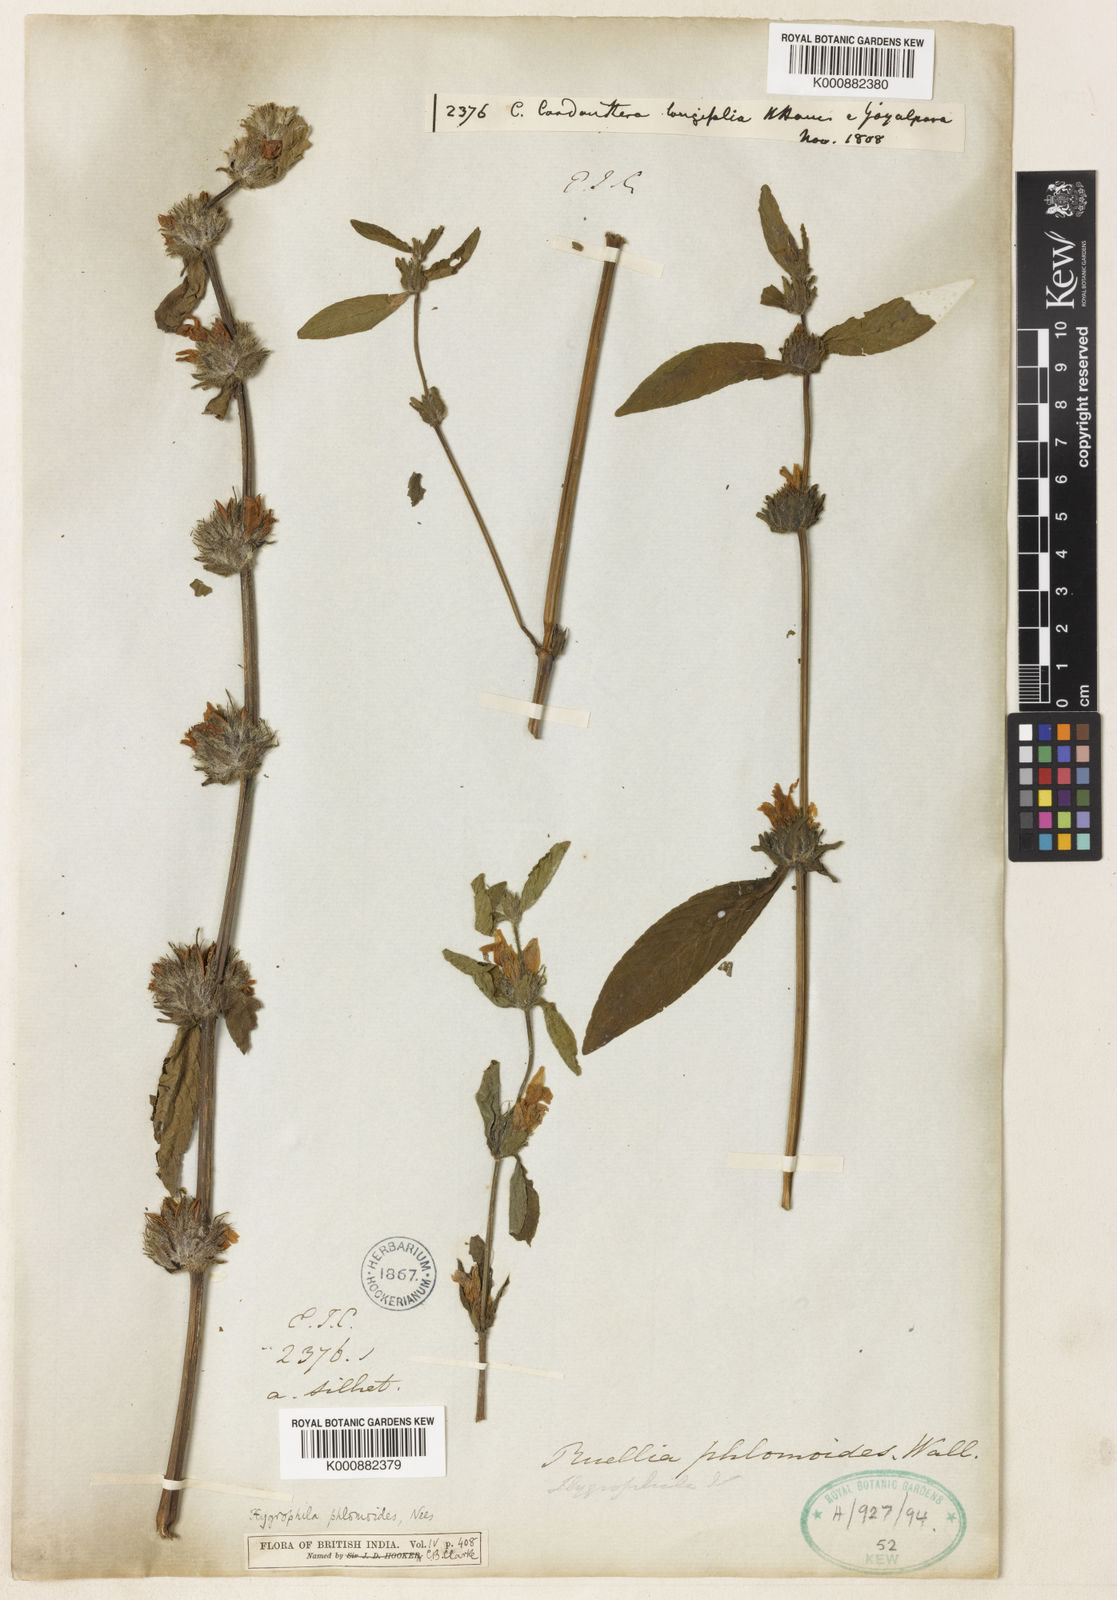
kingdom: Plantae
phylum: Tracheophyta
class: Magnoliopsida
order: Lamiales
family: Acanthaceae
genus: Hygrophila
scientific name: Hygrophila ringens
